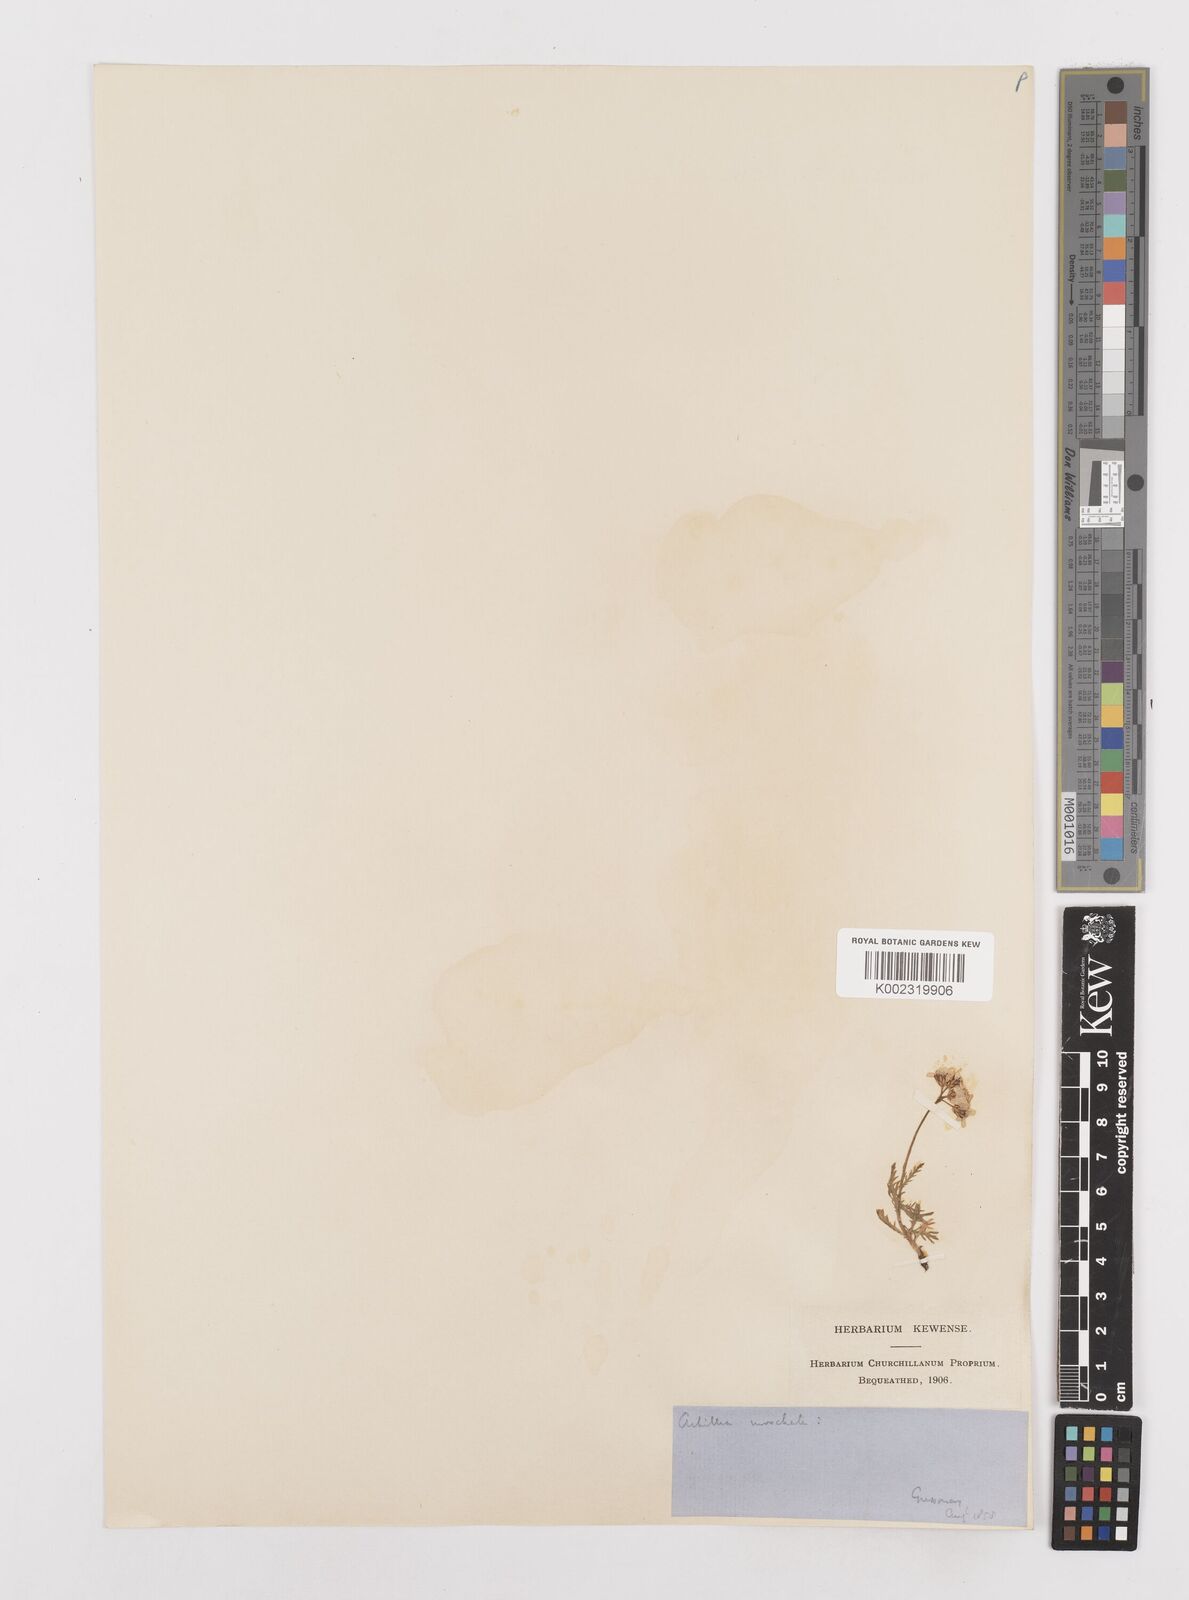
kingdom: Plantae
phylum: Tracheophyta
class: Magnoliopsida
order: Asterales
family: Asteraceae
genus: Achillea
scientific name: Achillea erba-rotta
